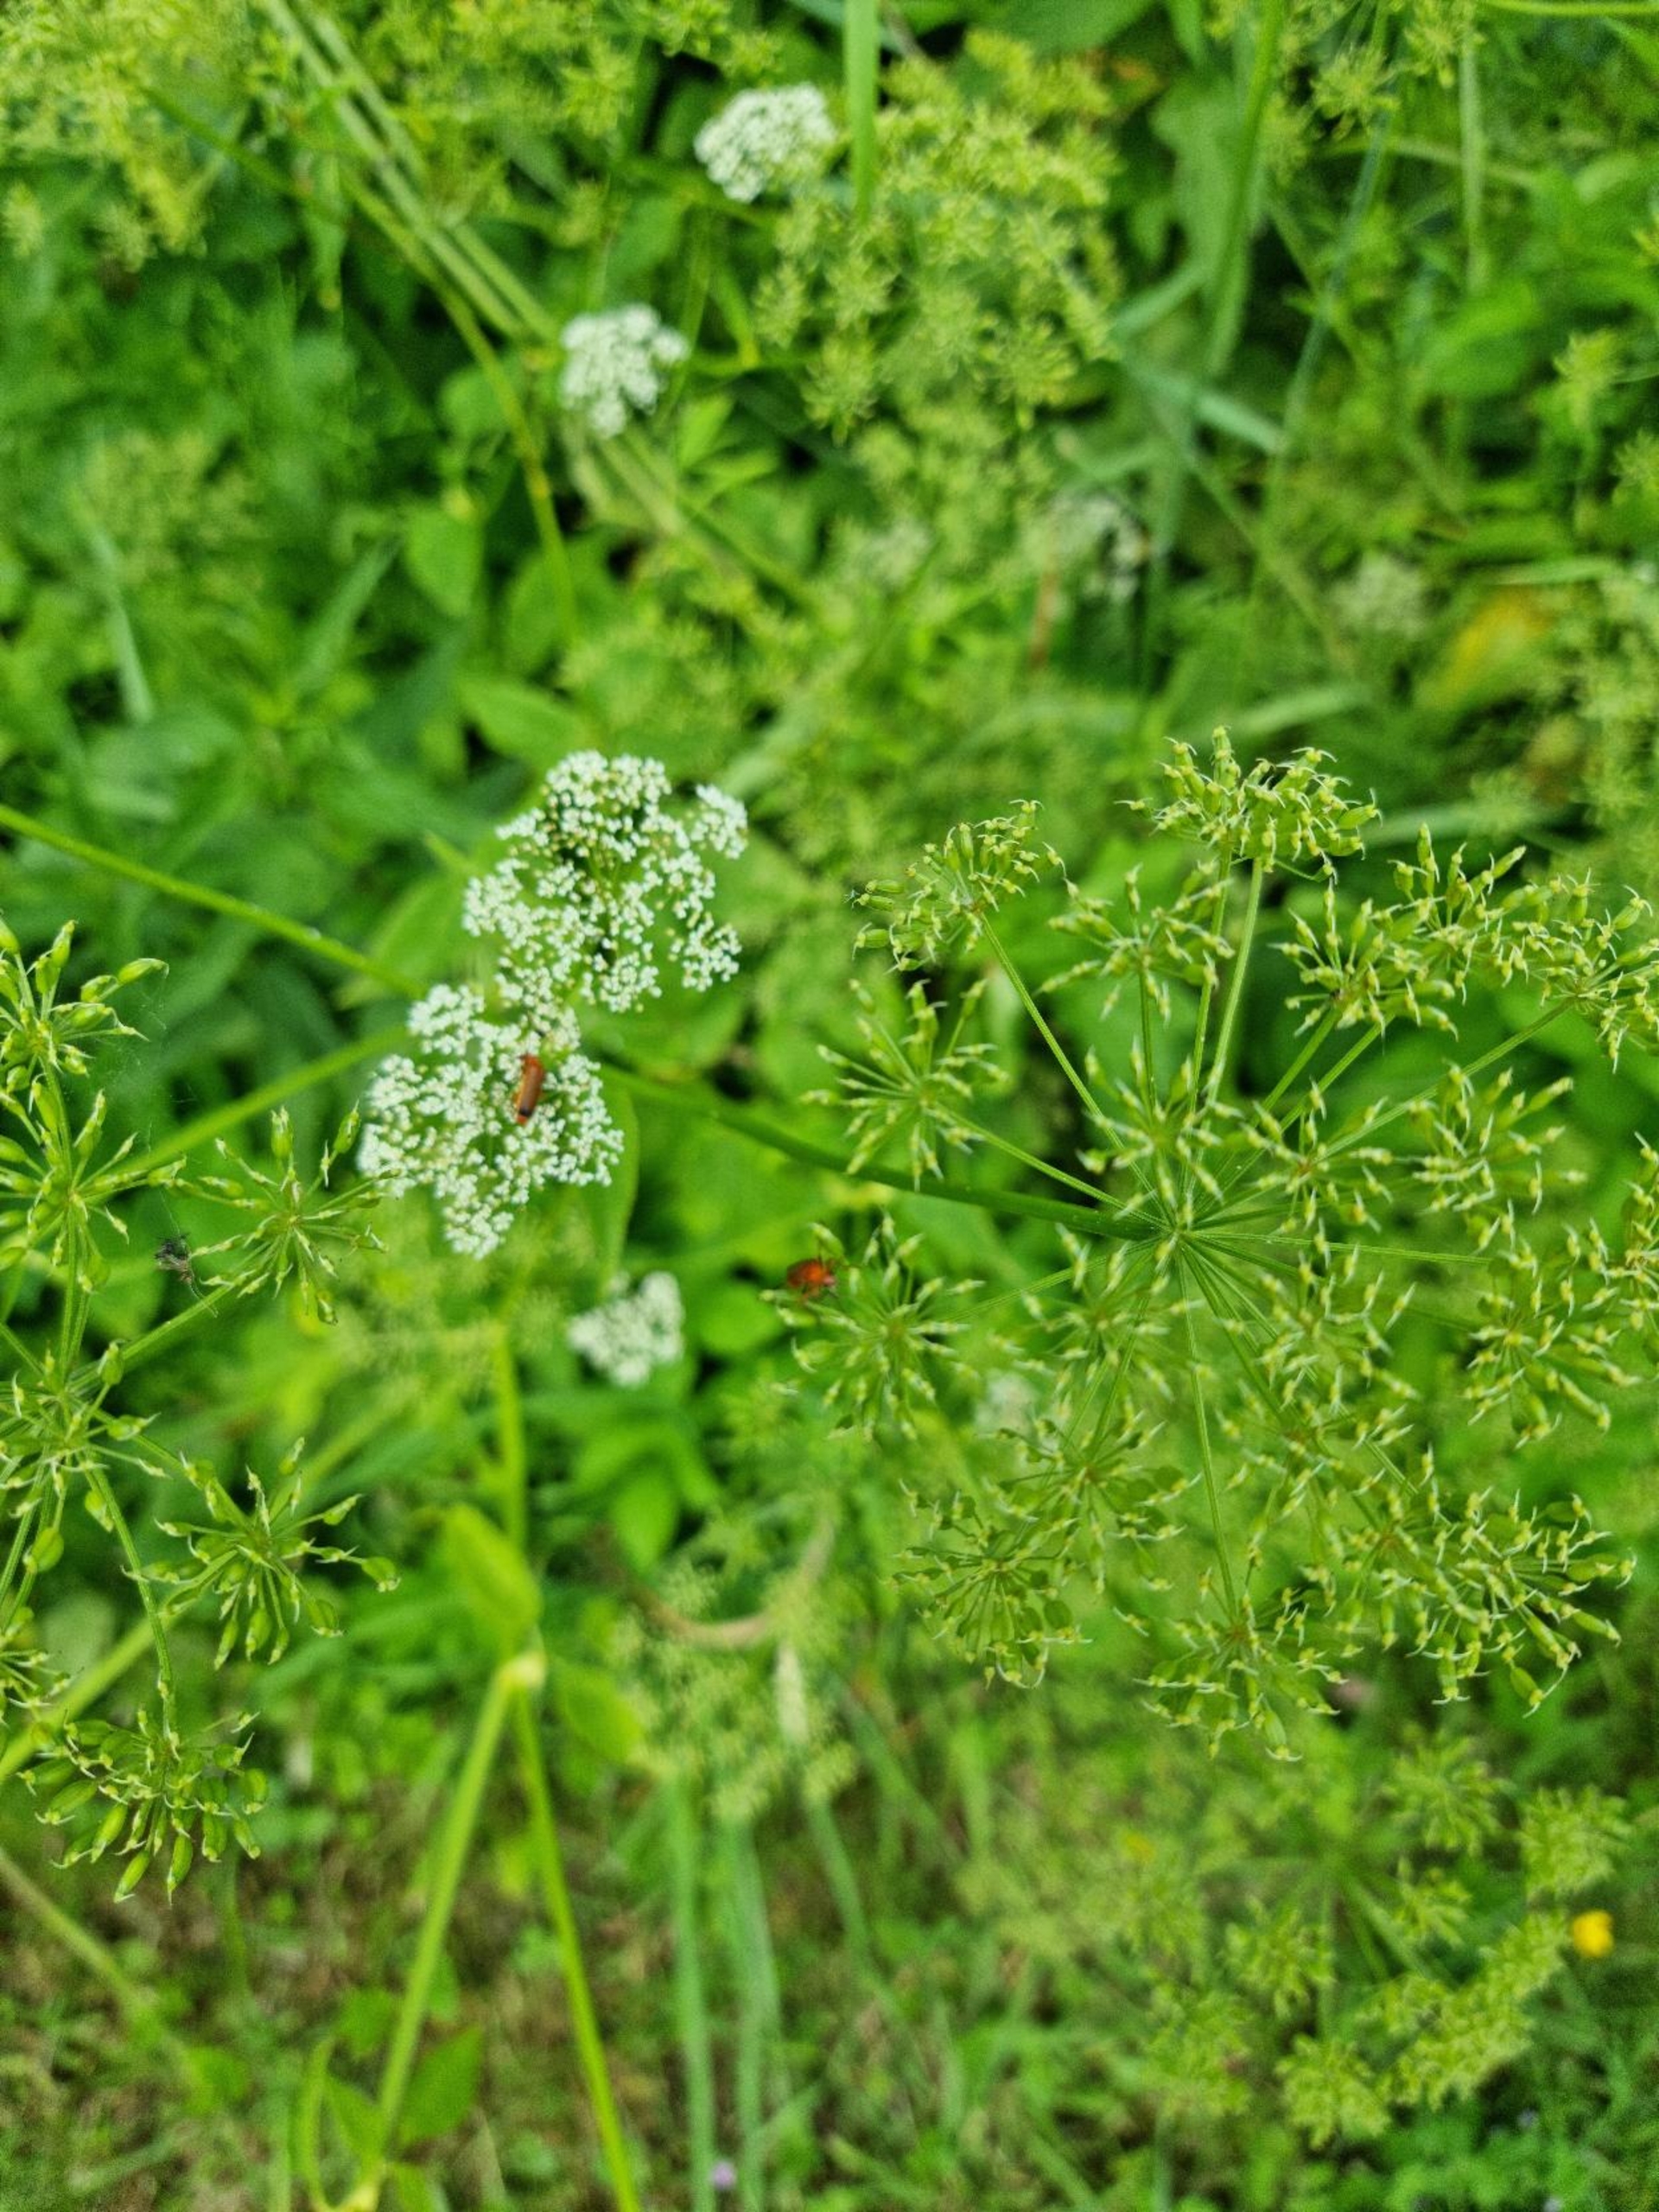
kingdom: Plantae
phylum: Tracheophyta
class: Magnoliopsida
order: Apiales
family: Apiaceae
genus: Aegopodium
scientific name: Aegopodium podagraria
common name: Skvalderkål
